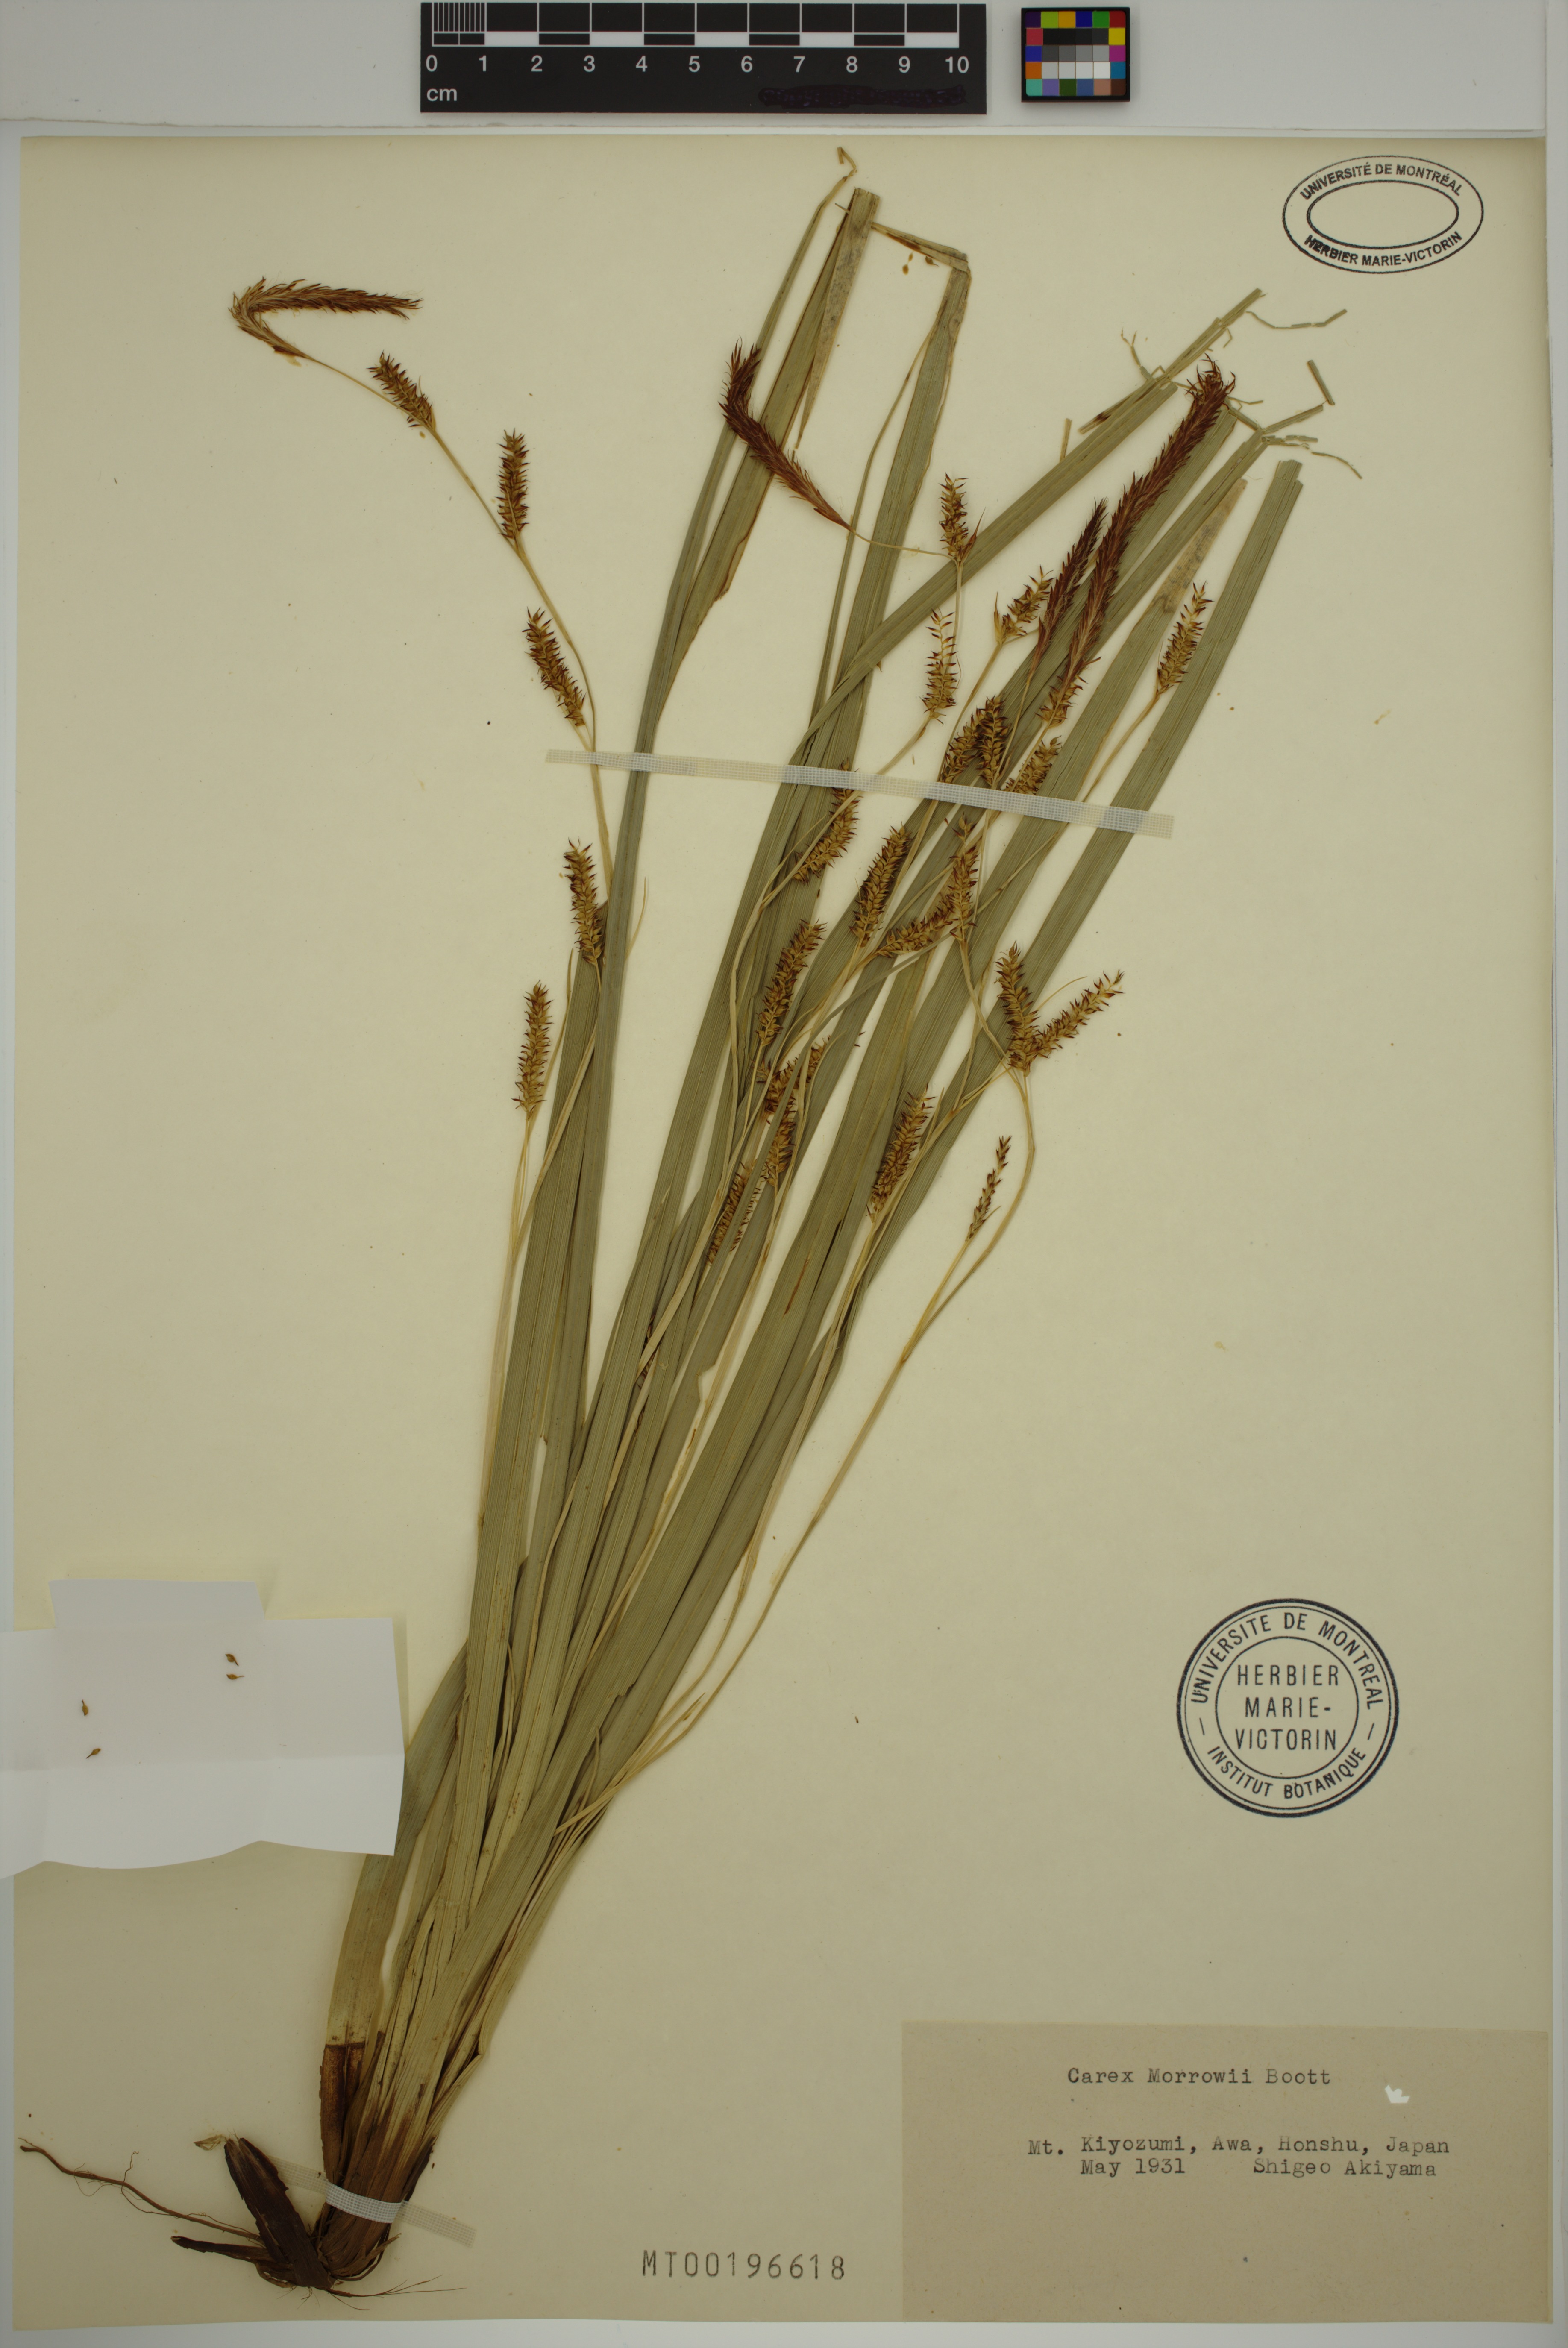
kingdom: Plantae
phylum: Tracheophyta
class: Liliopsida
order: Poales
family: Cyperaceae
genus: Carex
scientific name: Carex morrowii
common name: Japanese sedge
